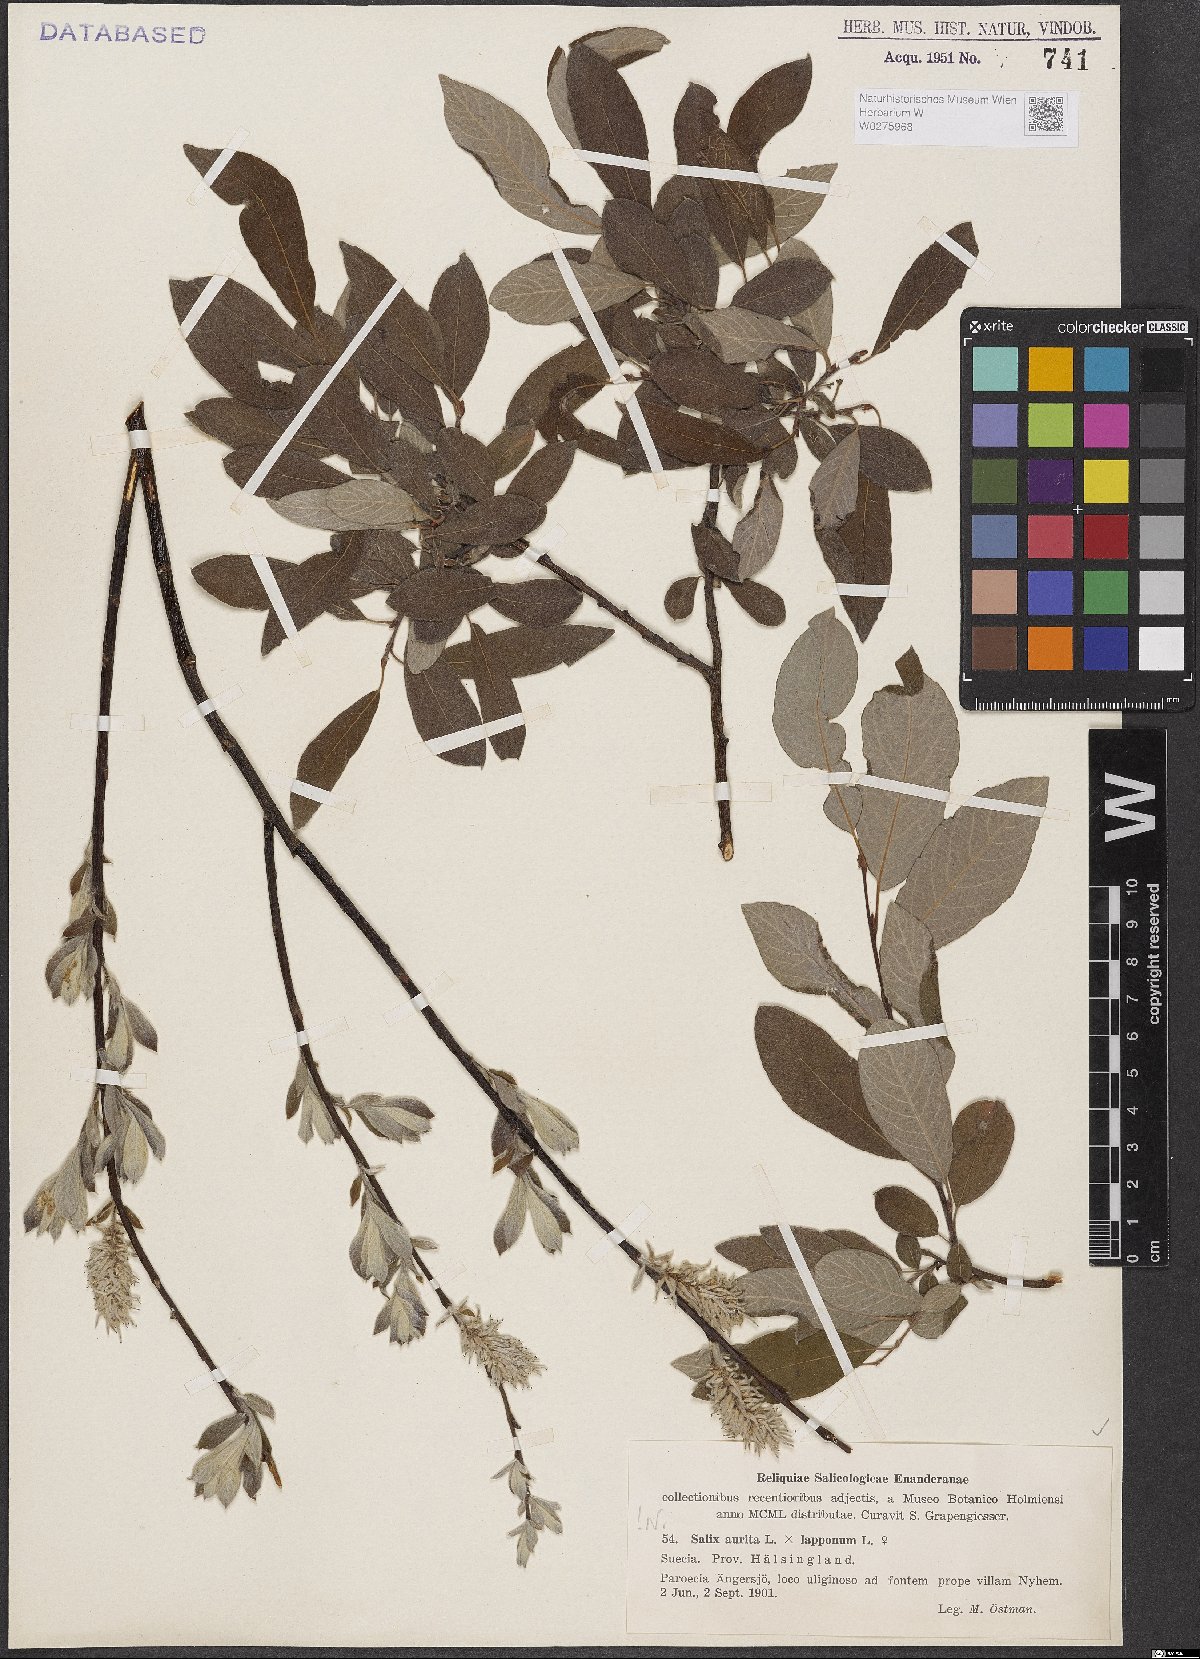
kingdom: Plantae
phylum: Tracheophyta
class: Magnoliopsida
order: Malpighiales
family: Salicaceae
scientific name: Salicaceae
